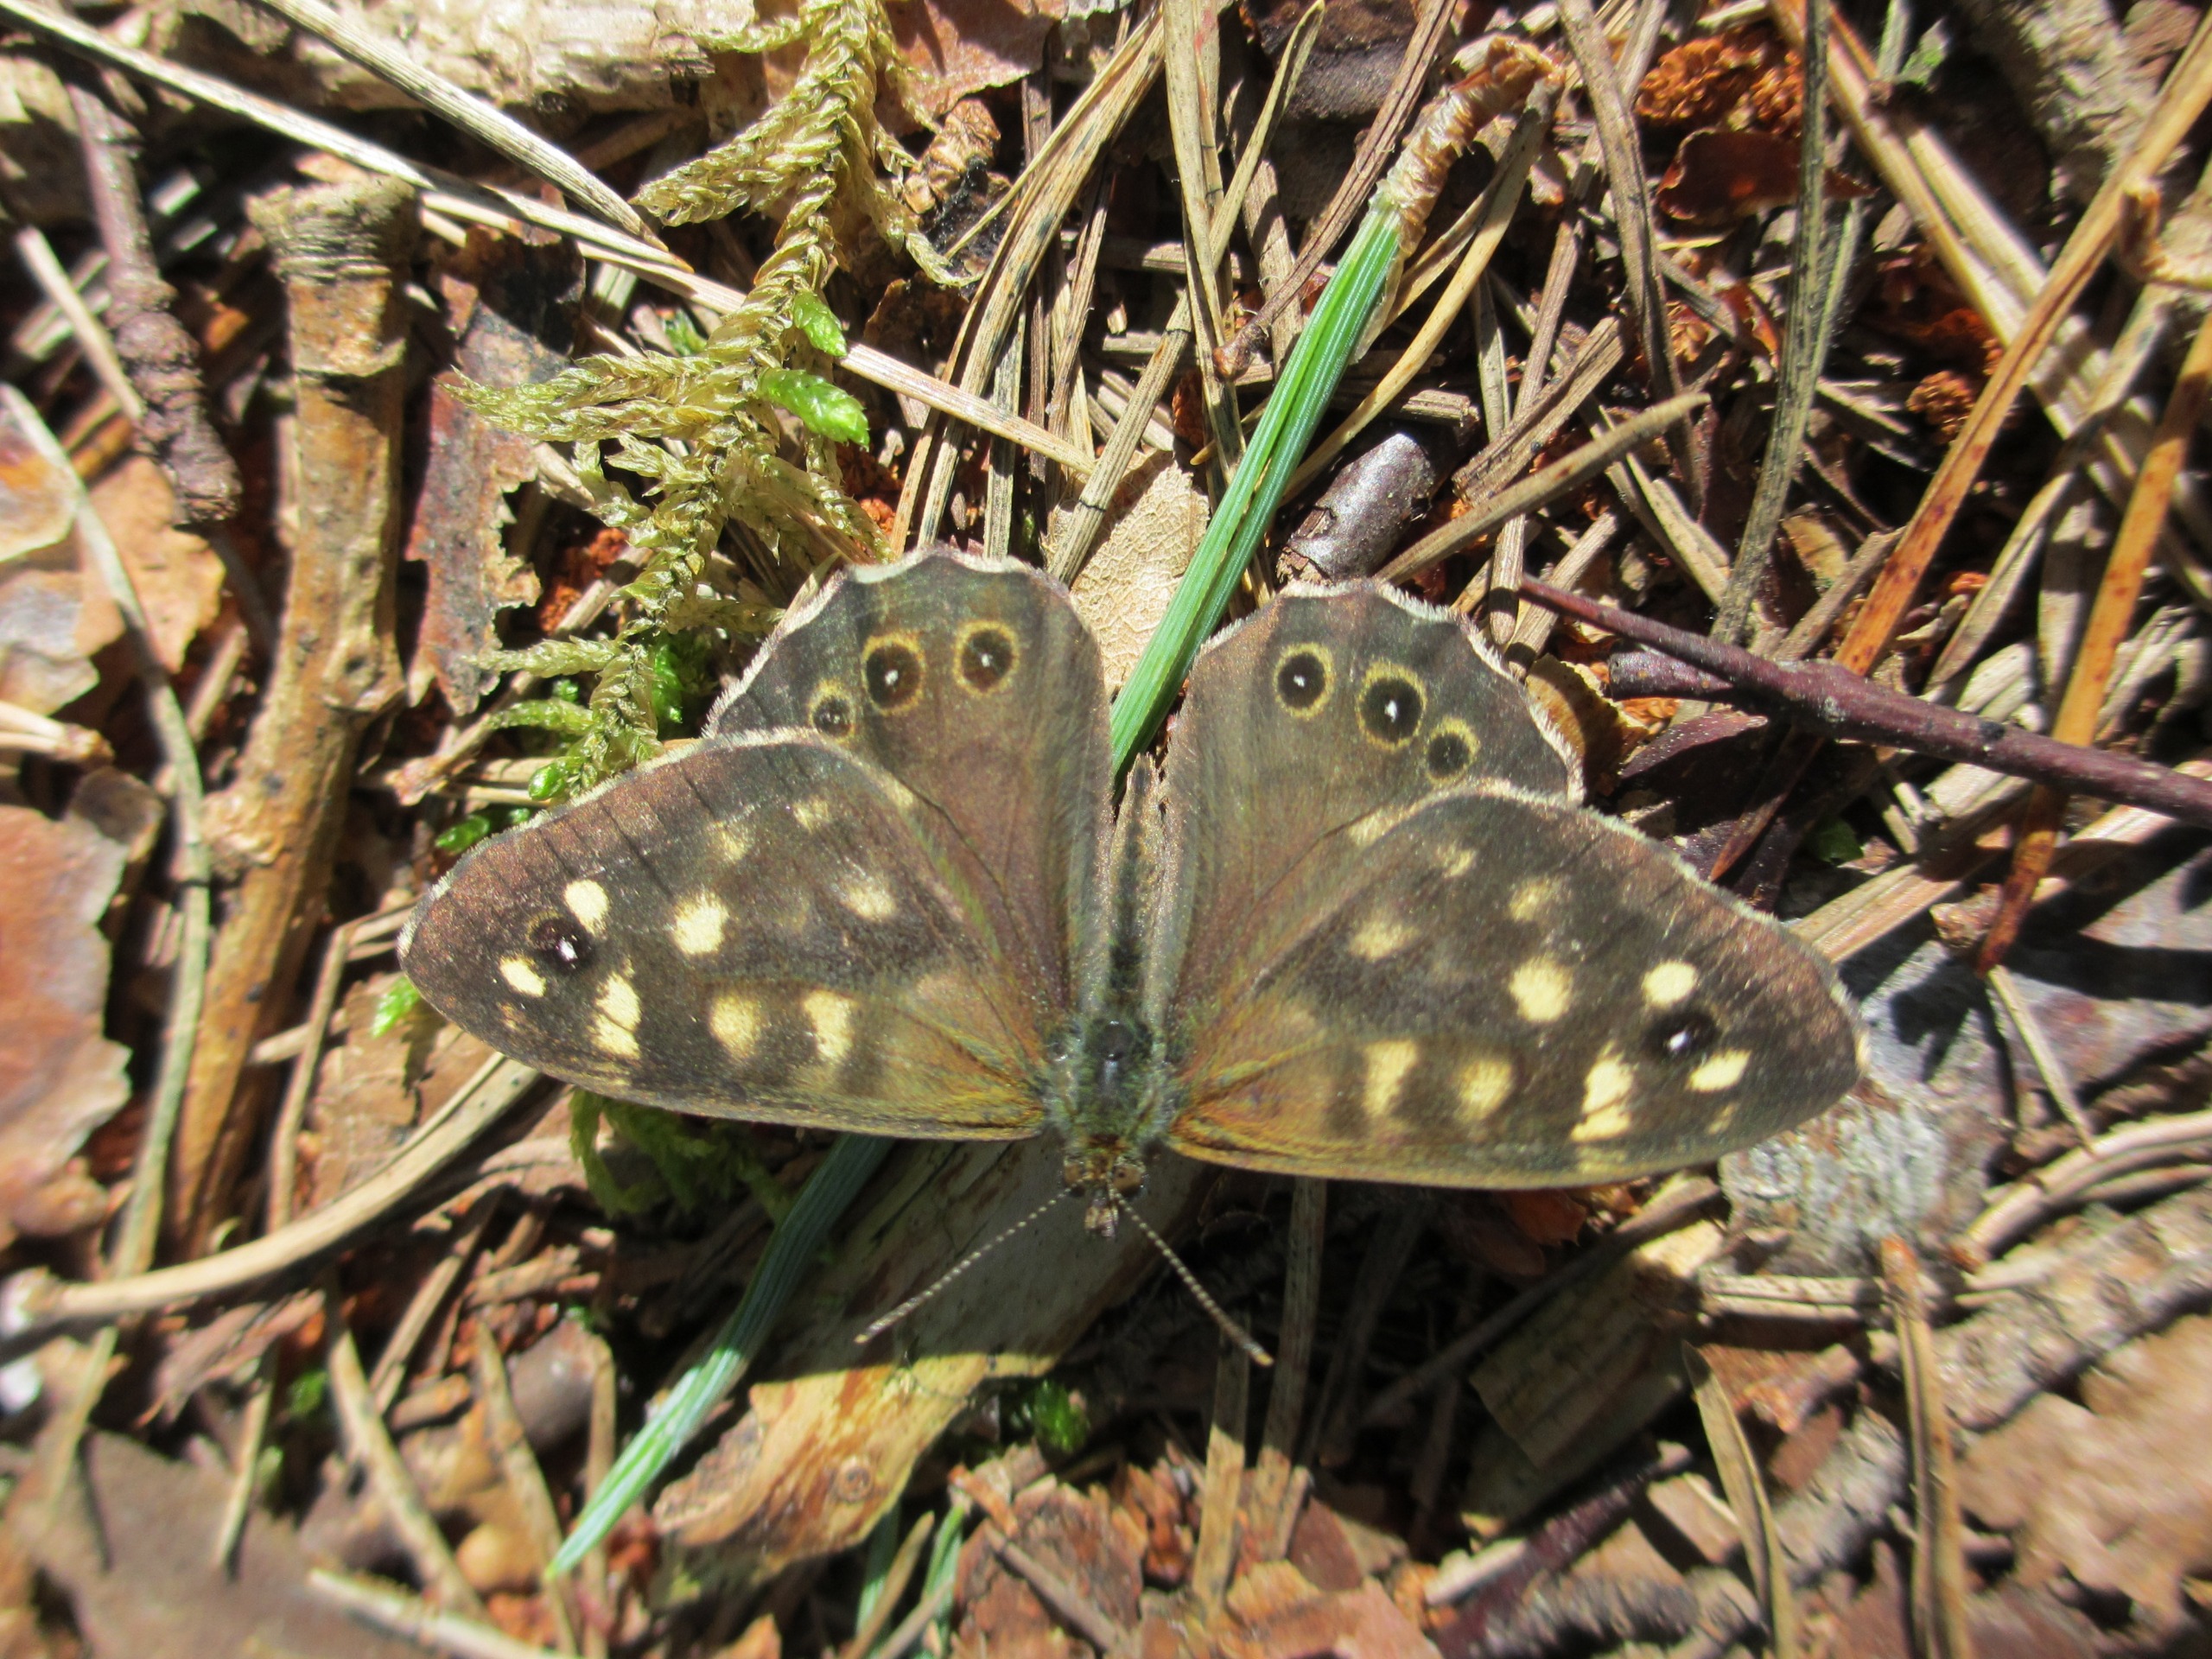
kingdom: Animalia
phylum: Arthropoda
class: Insecta
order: Lepidoptera
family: Nymphalidae
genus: Pararge
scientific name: Pararge aegeria
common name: Skovrandøje
